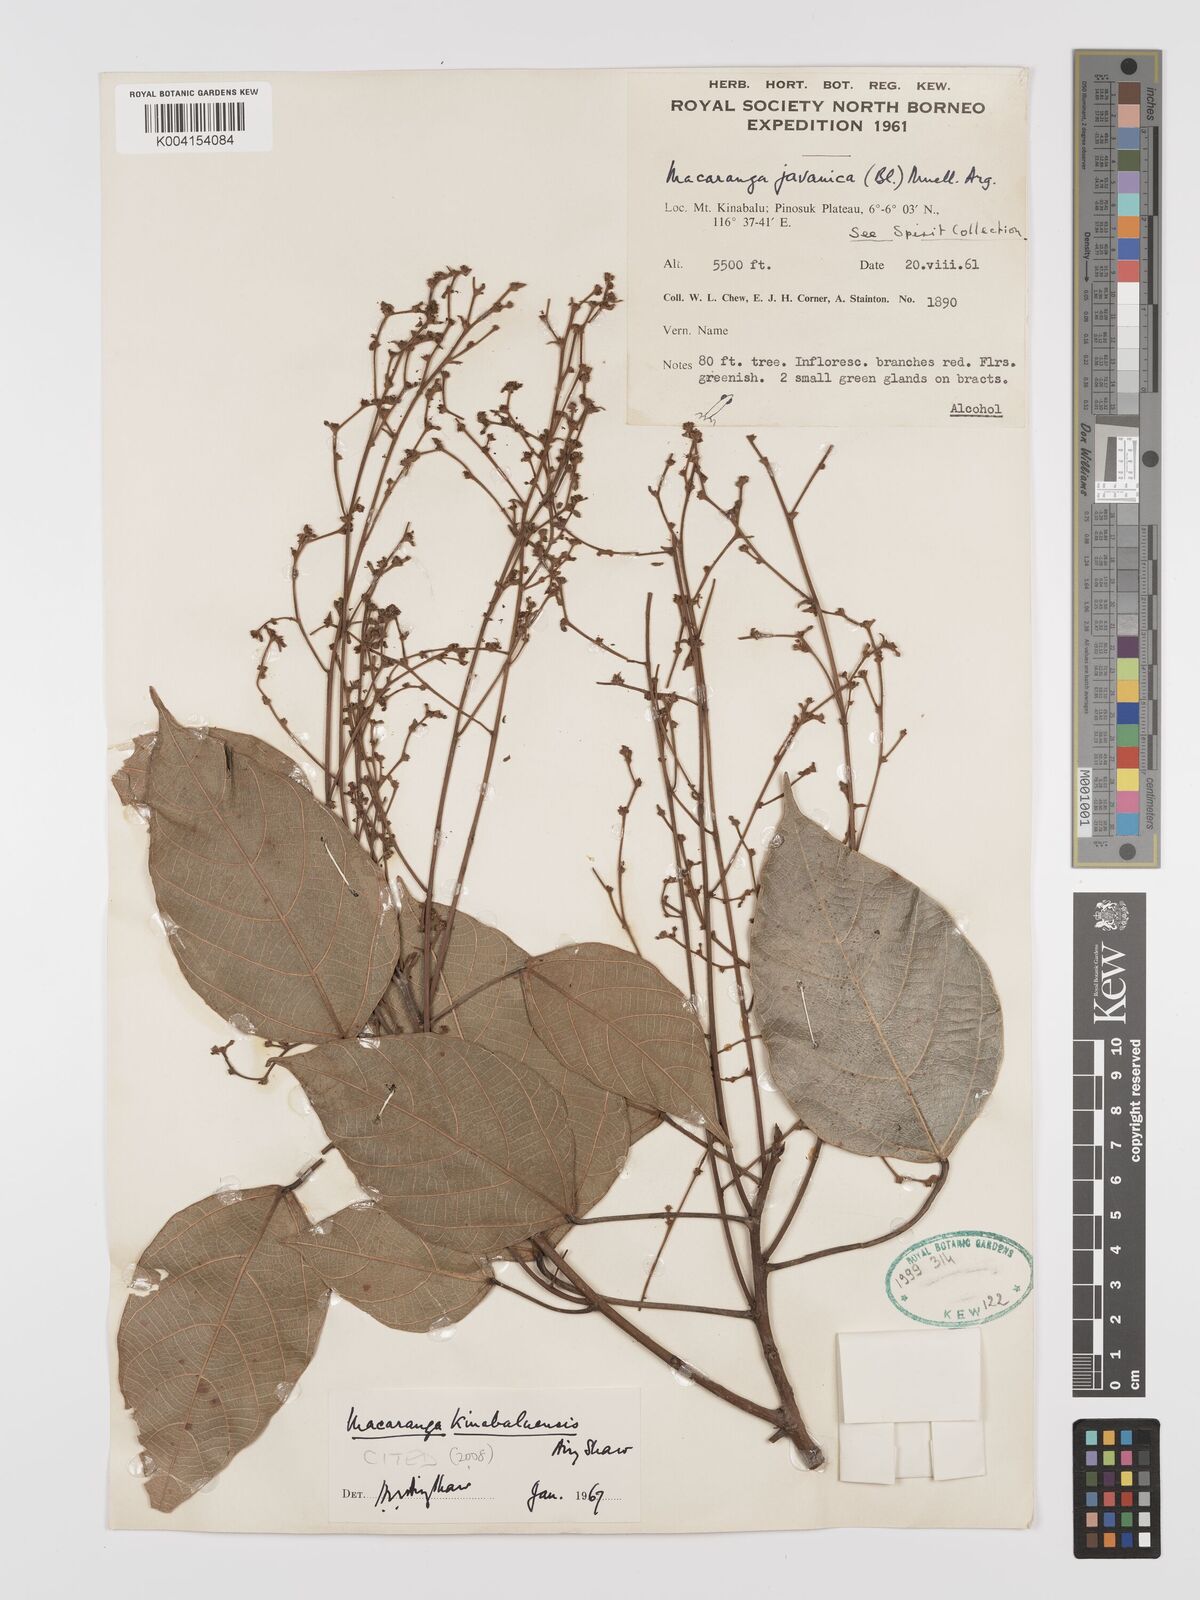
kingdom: Plantae
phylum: Tracheophyta
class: Magnoliopsida
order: Malpighiales
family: Euphorbiaceae
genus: Macaranga
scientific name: Macaranga kinabaluensis
